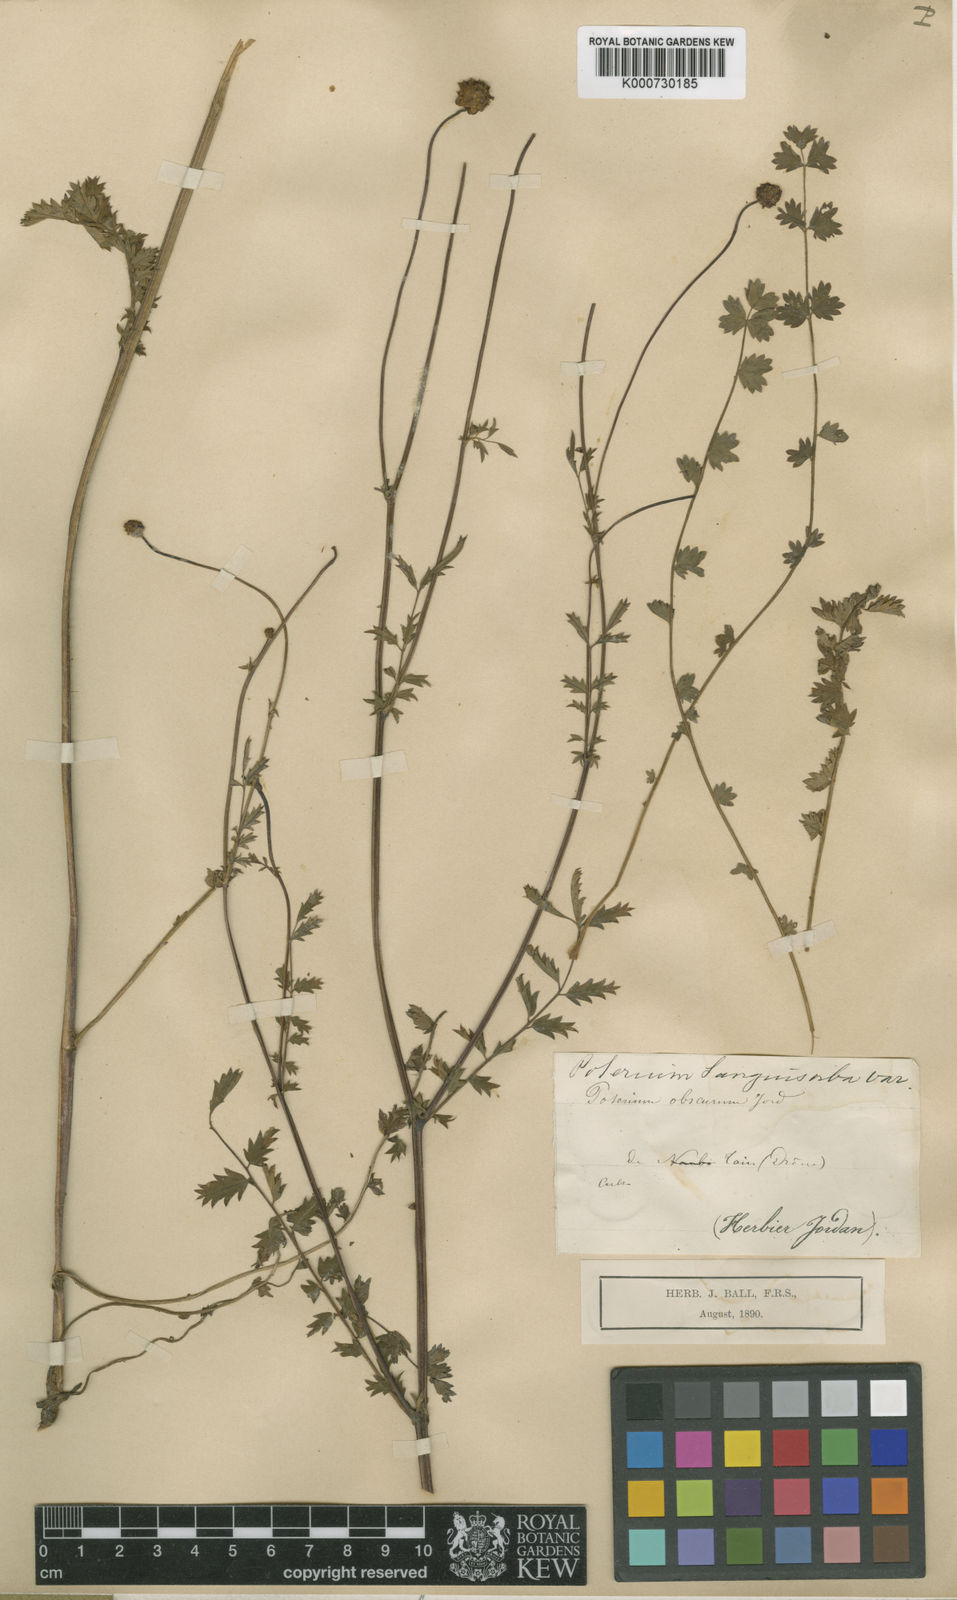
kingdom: Plantae
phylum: Tracheophyta
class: Magnoliopsida
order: Rosales
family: Rosaceae
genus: Sanguisorba
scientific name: Sanguisorba
